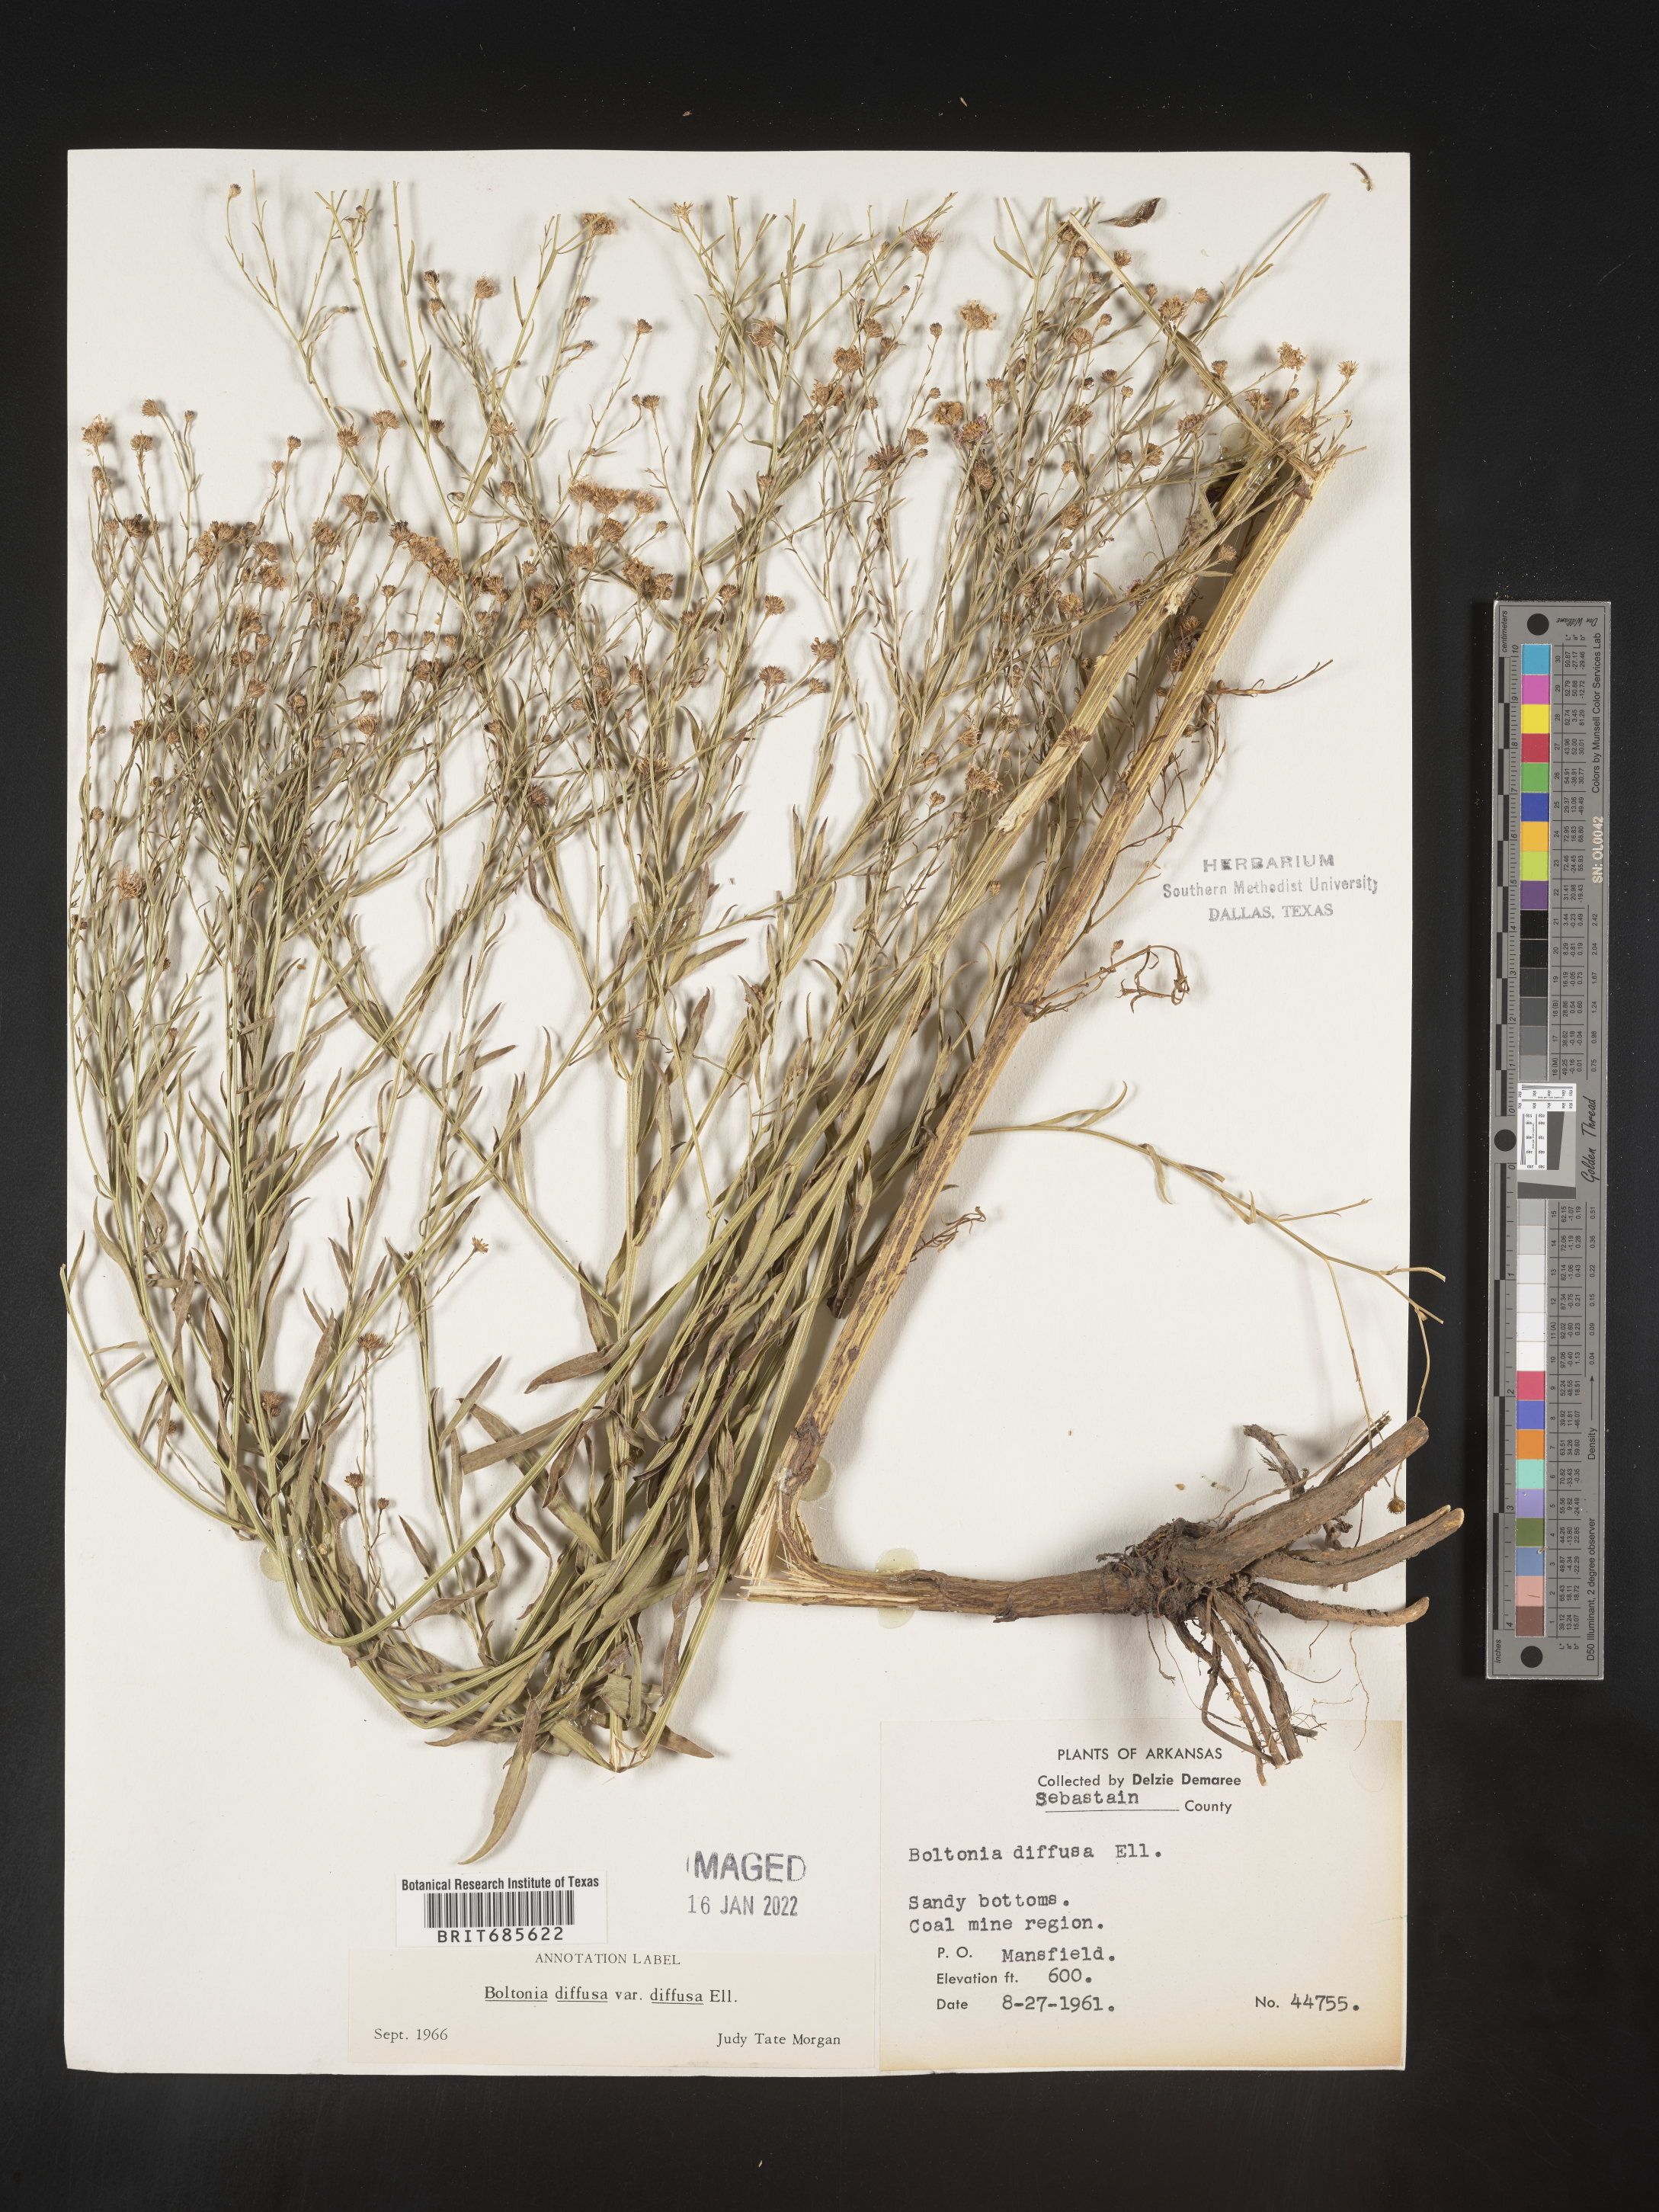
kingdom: Plantae
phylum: Tracheophyta
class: Magnoliopsida
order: Asterales
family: Asteraceae
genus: Boltonia
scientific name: Boltonia diffusa
